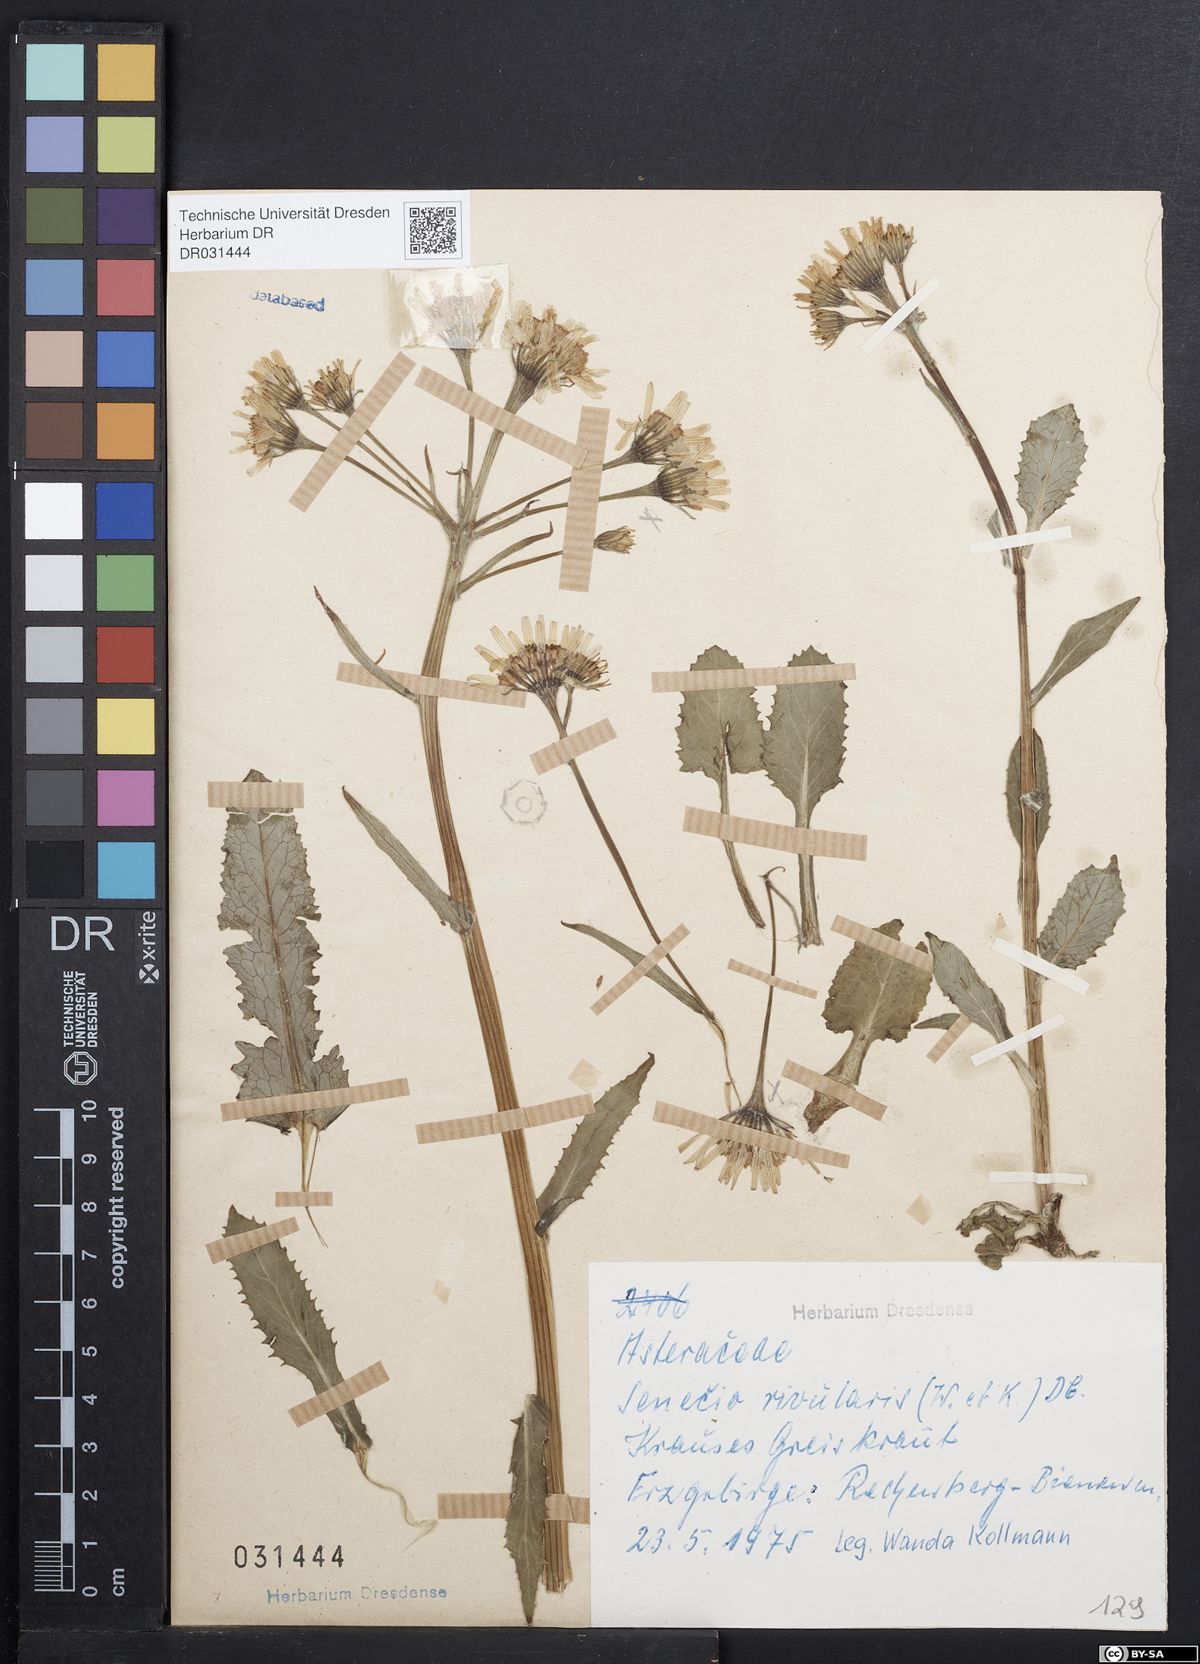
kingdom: Plantae
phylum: Tracheophyta
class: Magnoliopsida
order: Asterales
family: Asteraceae
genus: Tephroseris
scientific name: Tephroseris crispa
